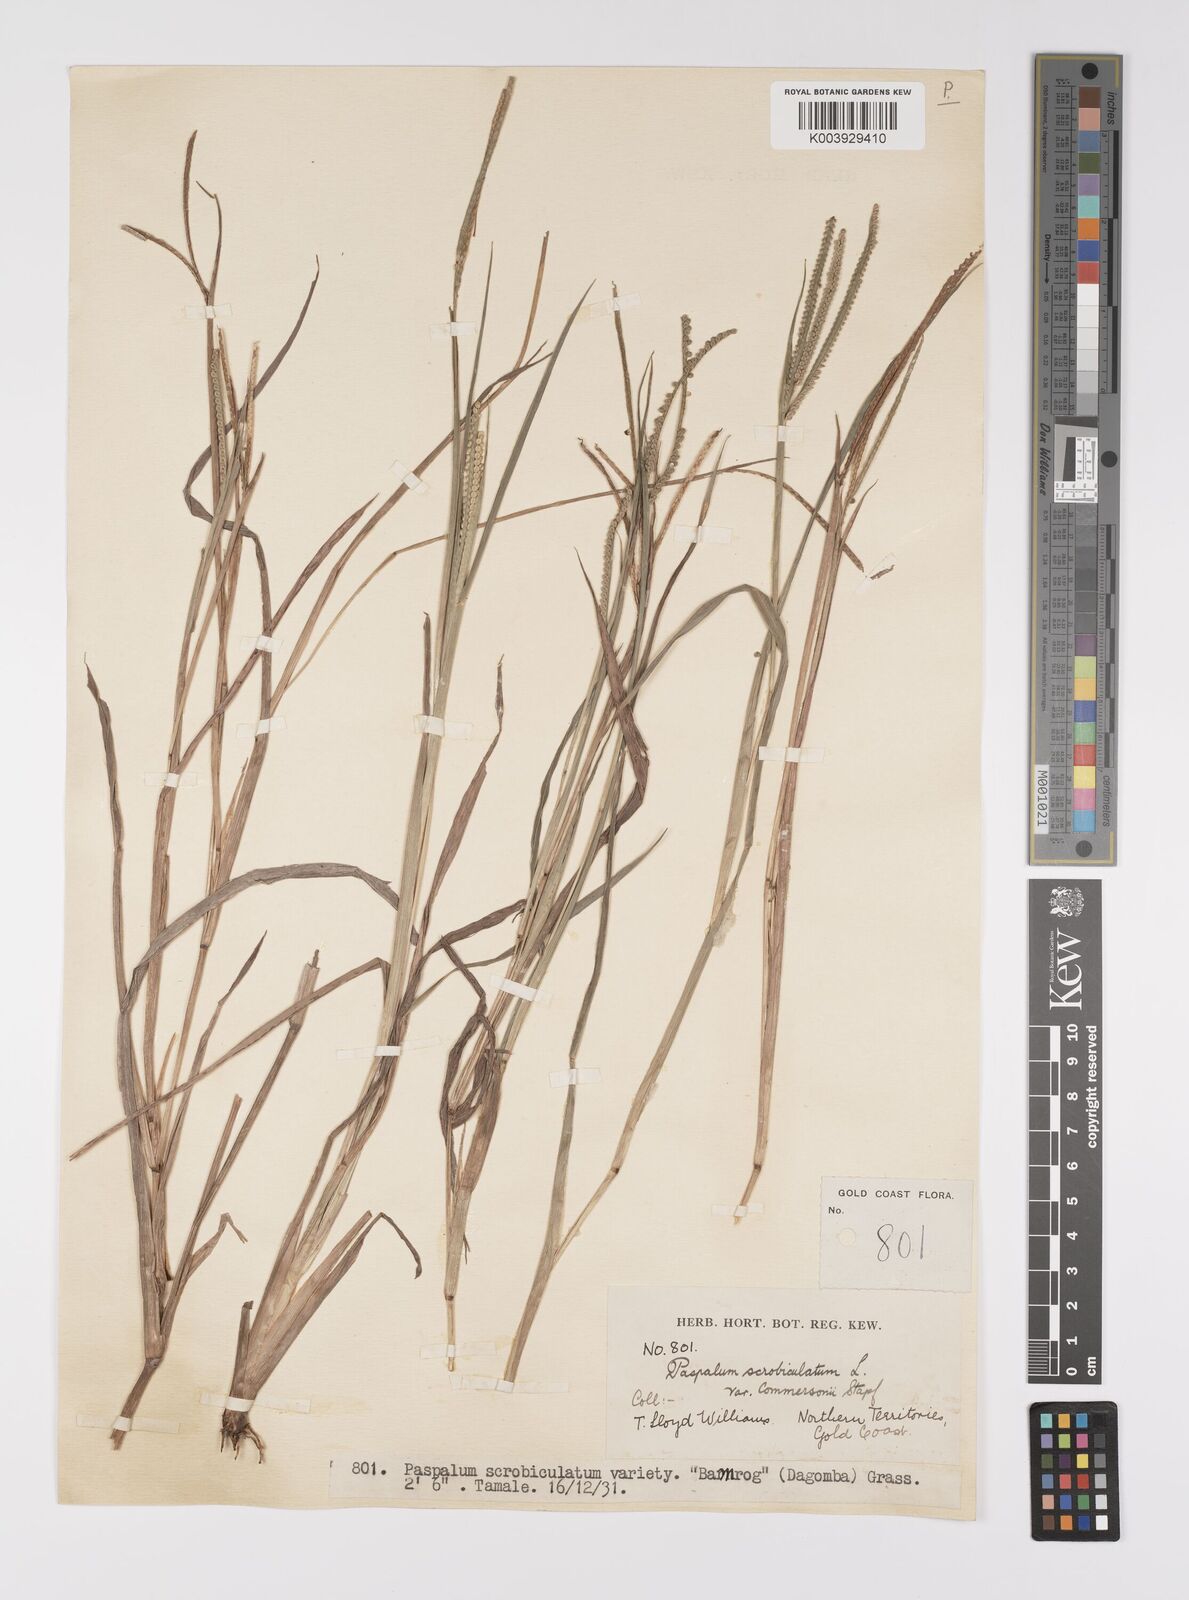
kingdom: Plantae
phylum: Tracheophyta
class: Liliopsida
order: Poales
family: Poaceae
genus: Paspalum
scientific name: Paspalum scrobiculatum
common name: Kodo millet
